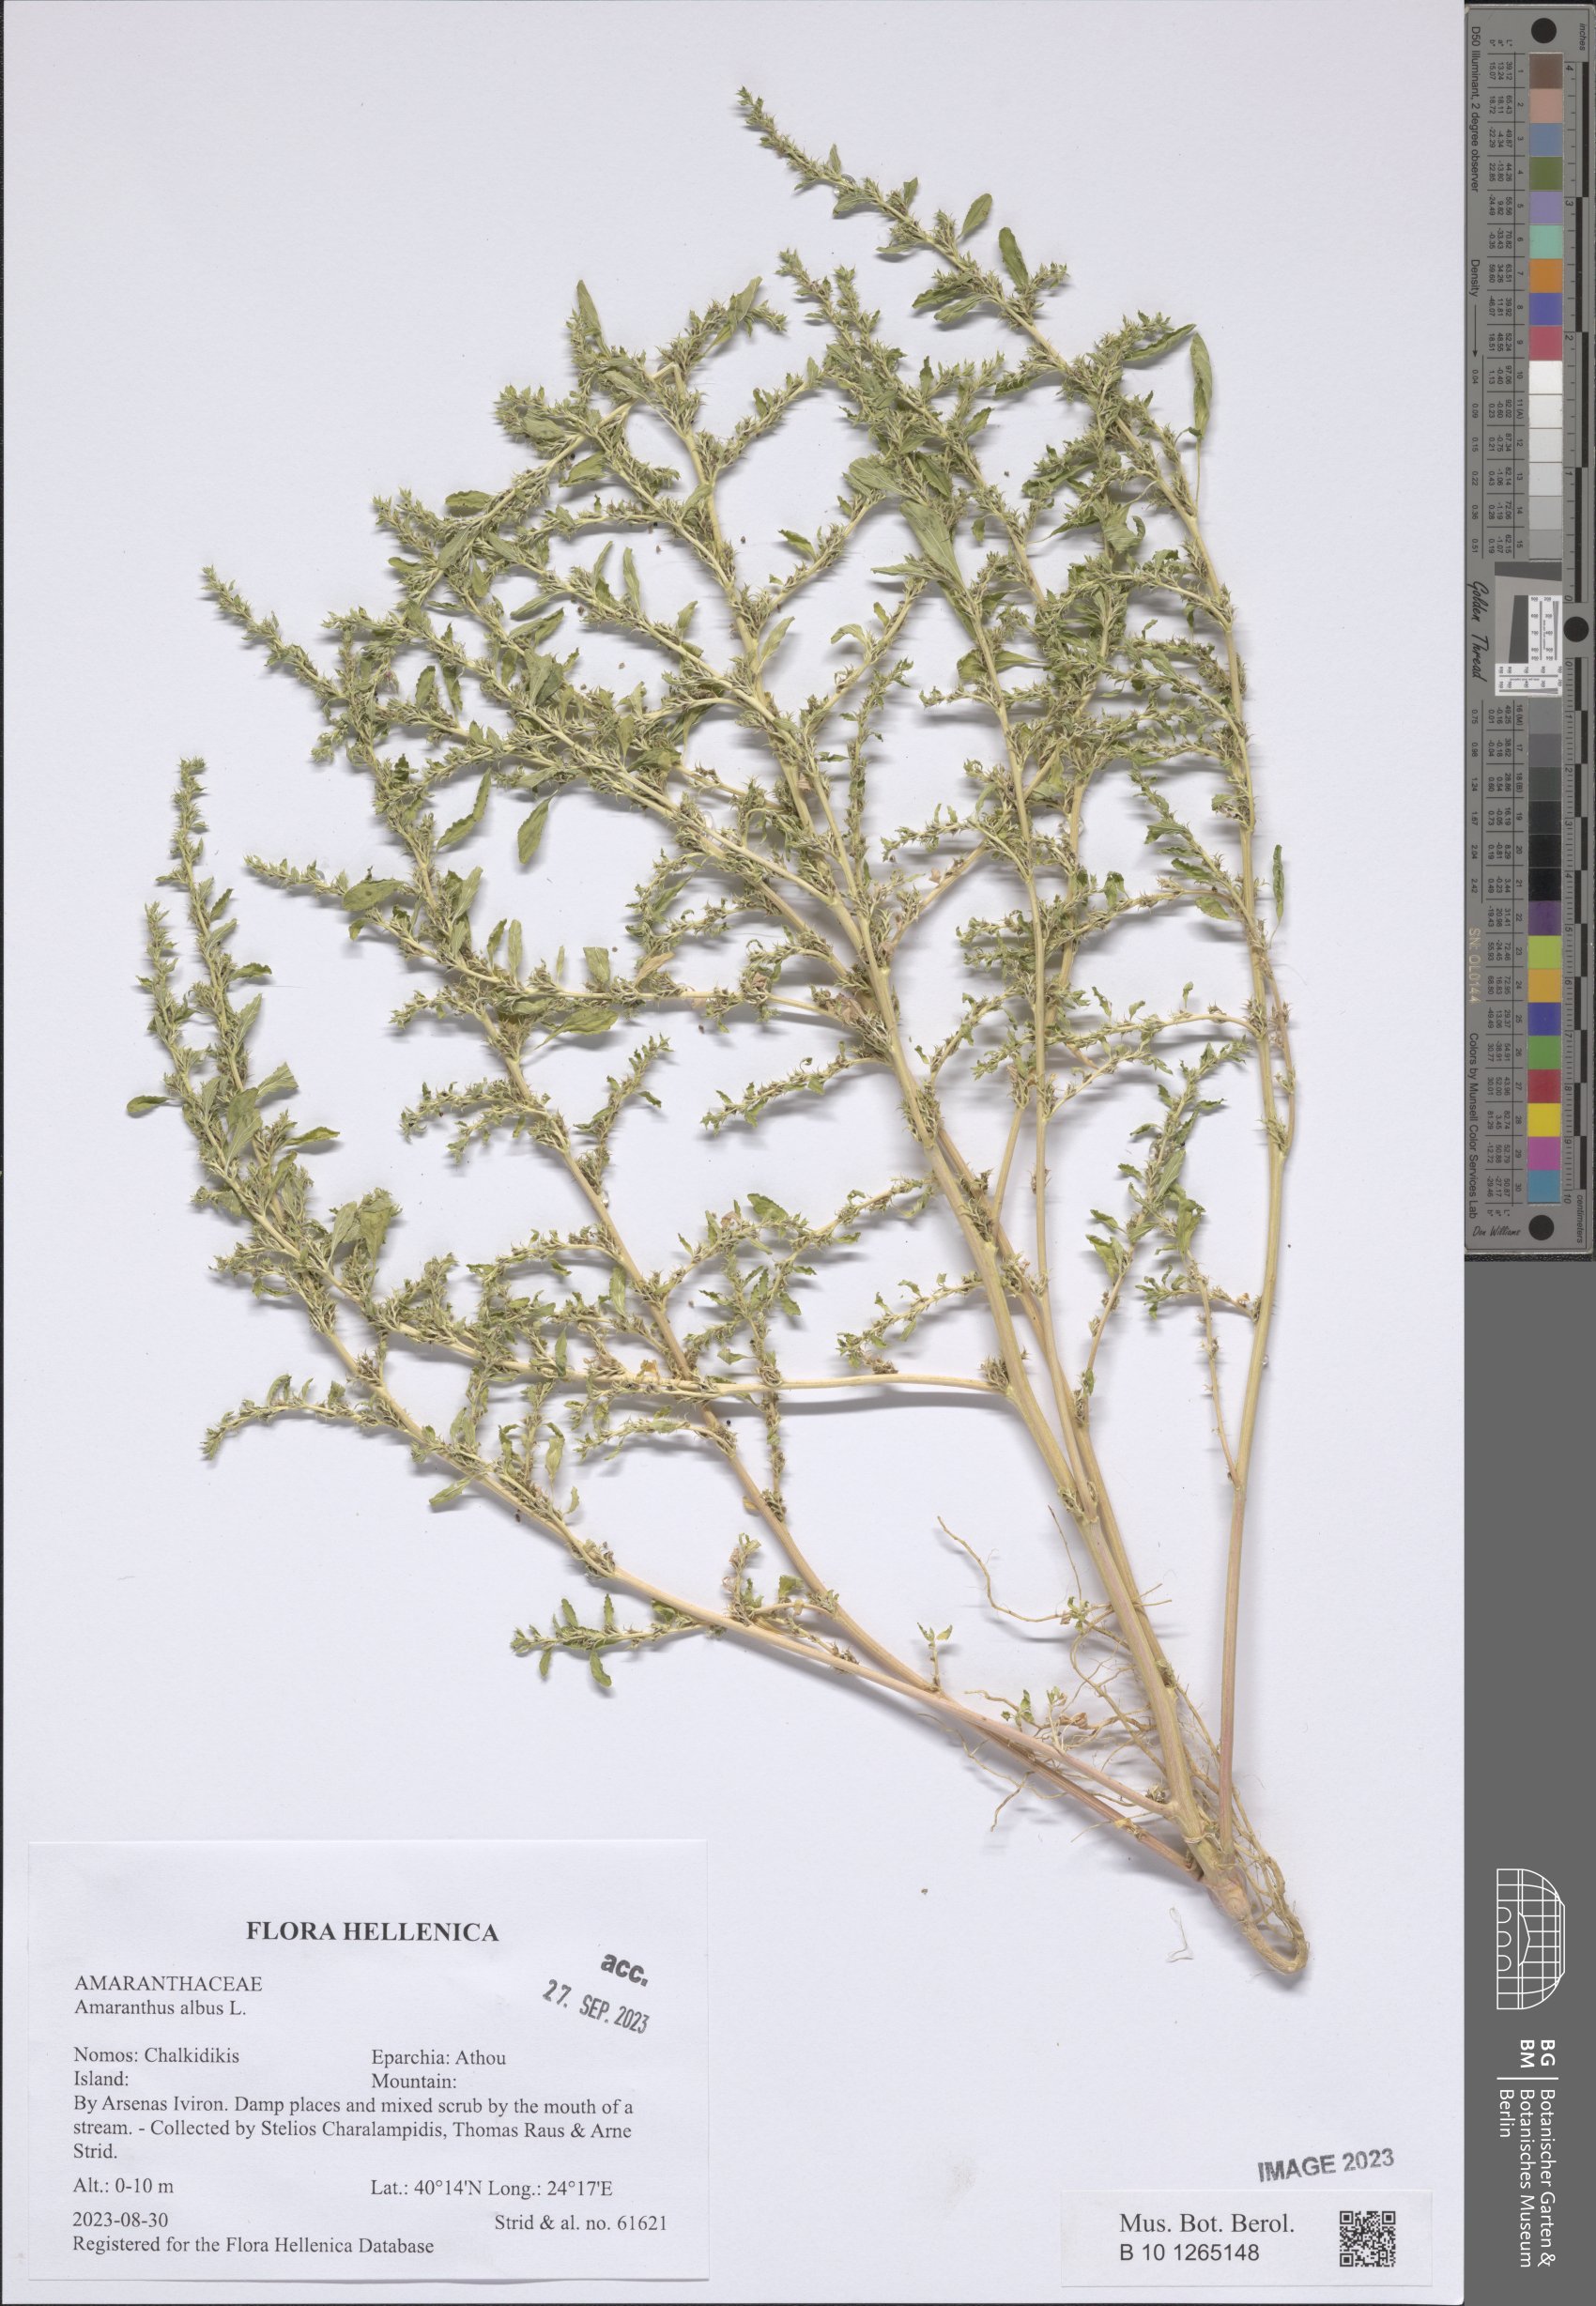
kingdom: Plantae
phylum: Tracheophyta
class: Magnoliopsida
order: Caryophyllales
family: Amaranthaceae
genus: Amaranthus
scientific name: Amaranthus albus
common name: White pigweed
